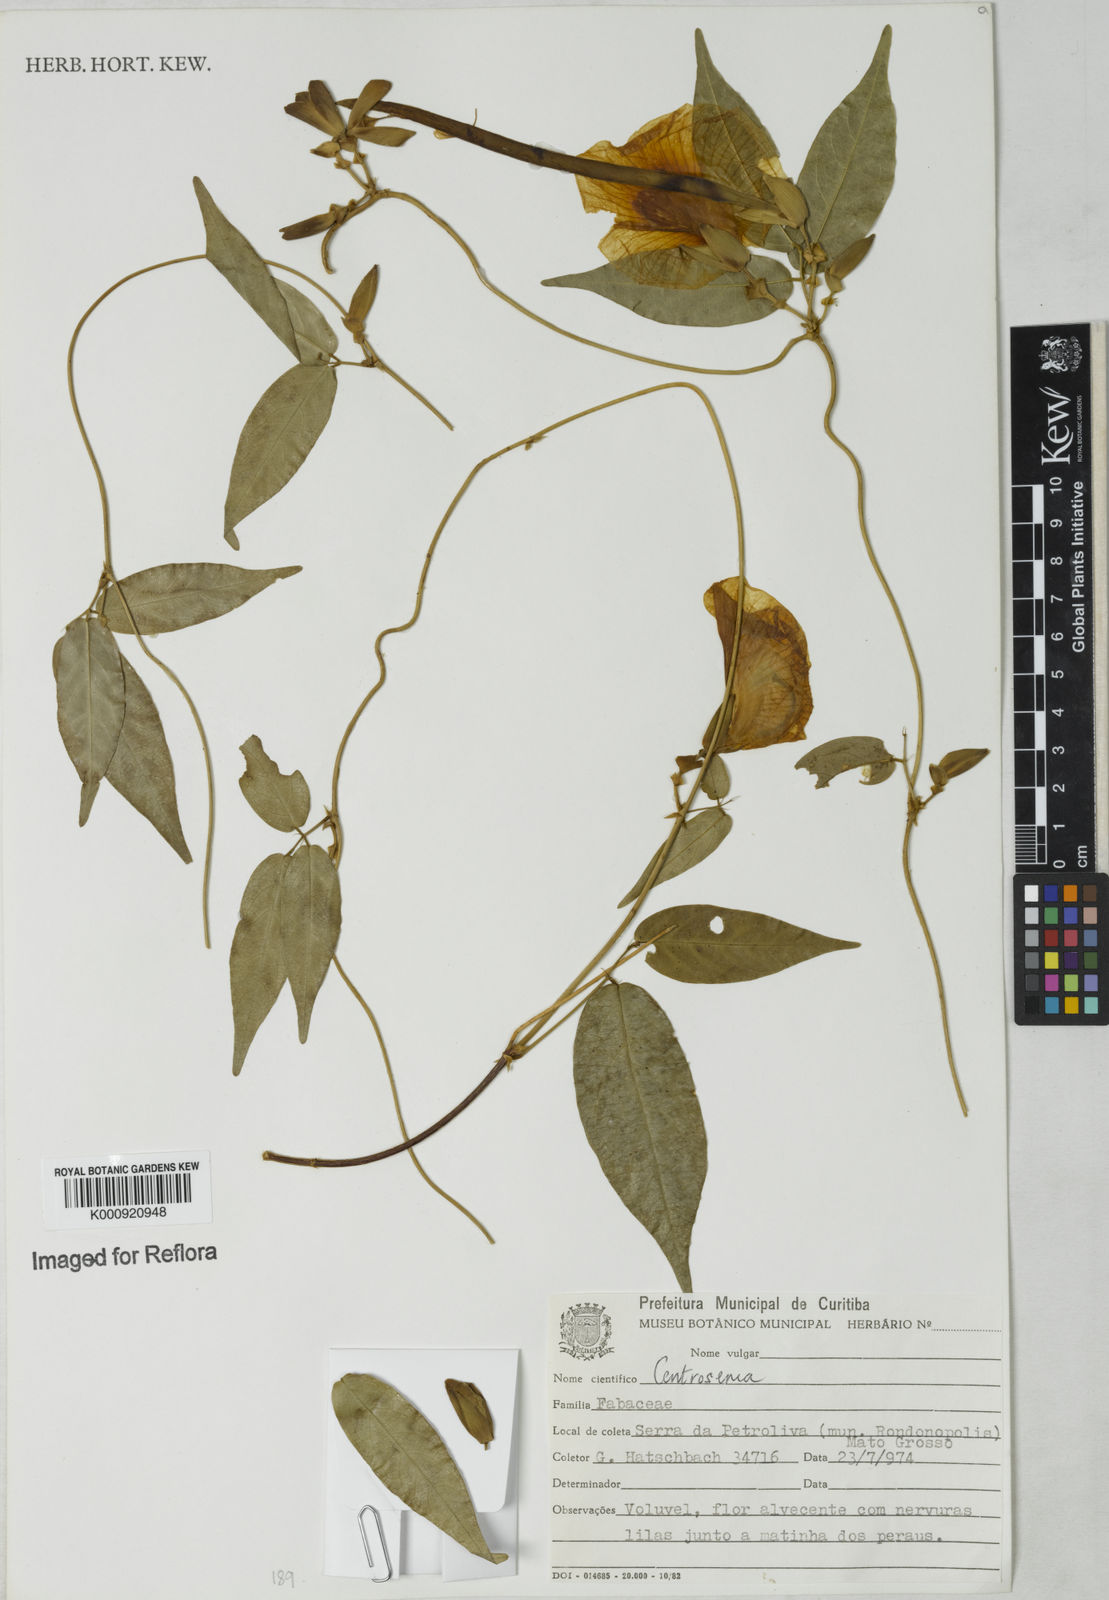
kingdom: Plantae
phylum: Tracheophyta
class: Magnoliopsida
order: Fabales
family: Fabaceae
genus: Centrosema
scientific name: Centrosema
